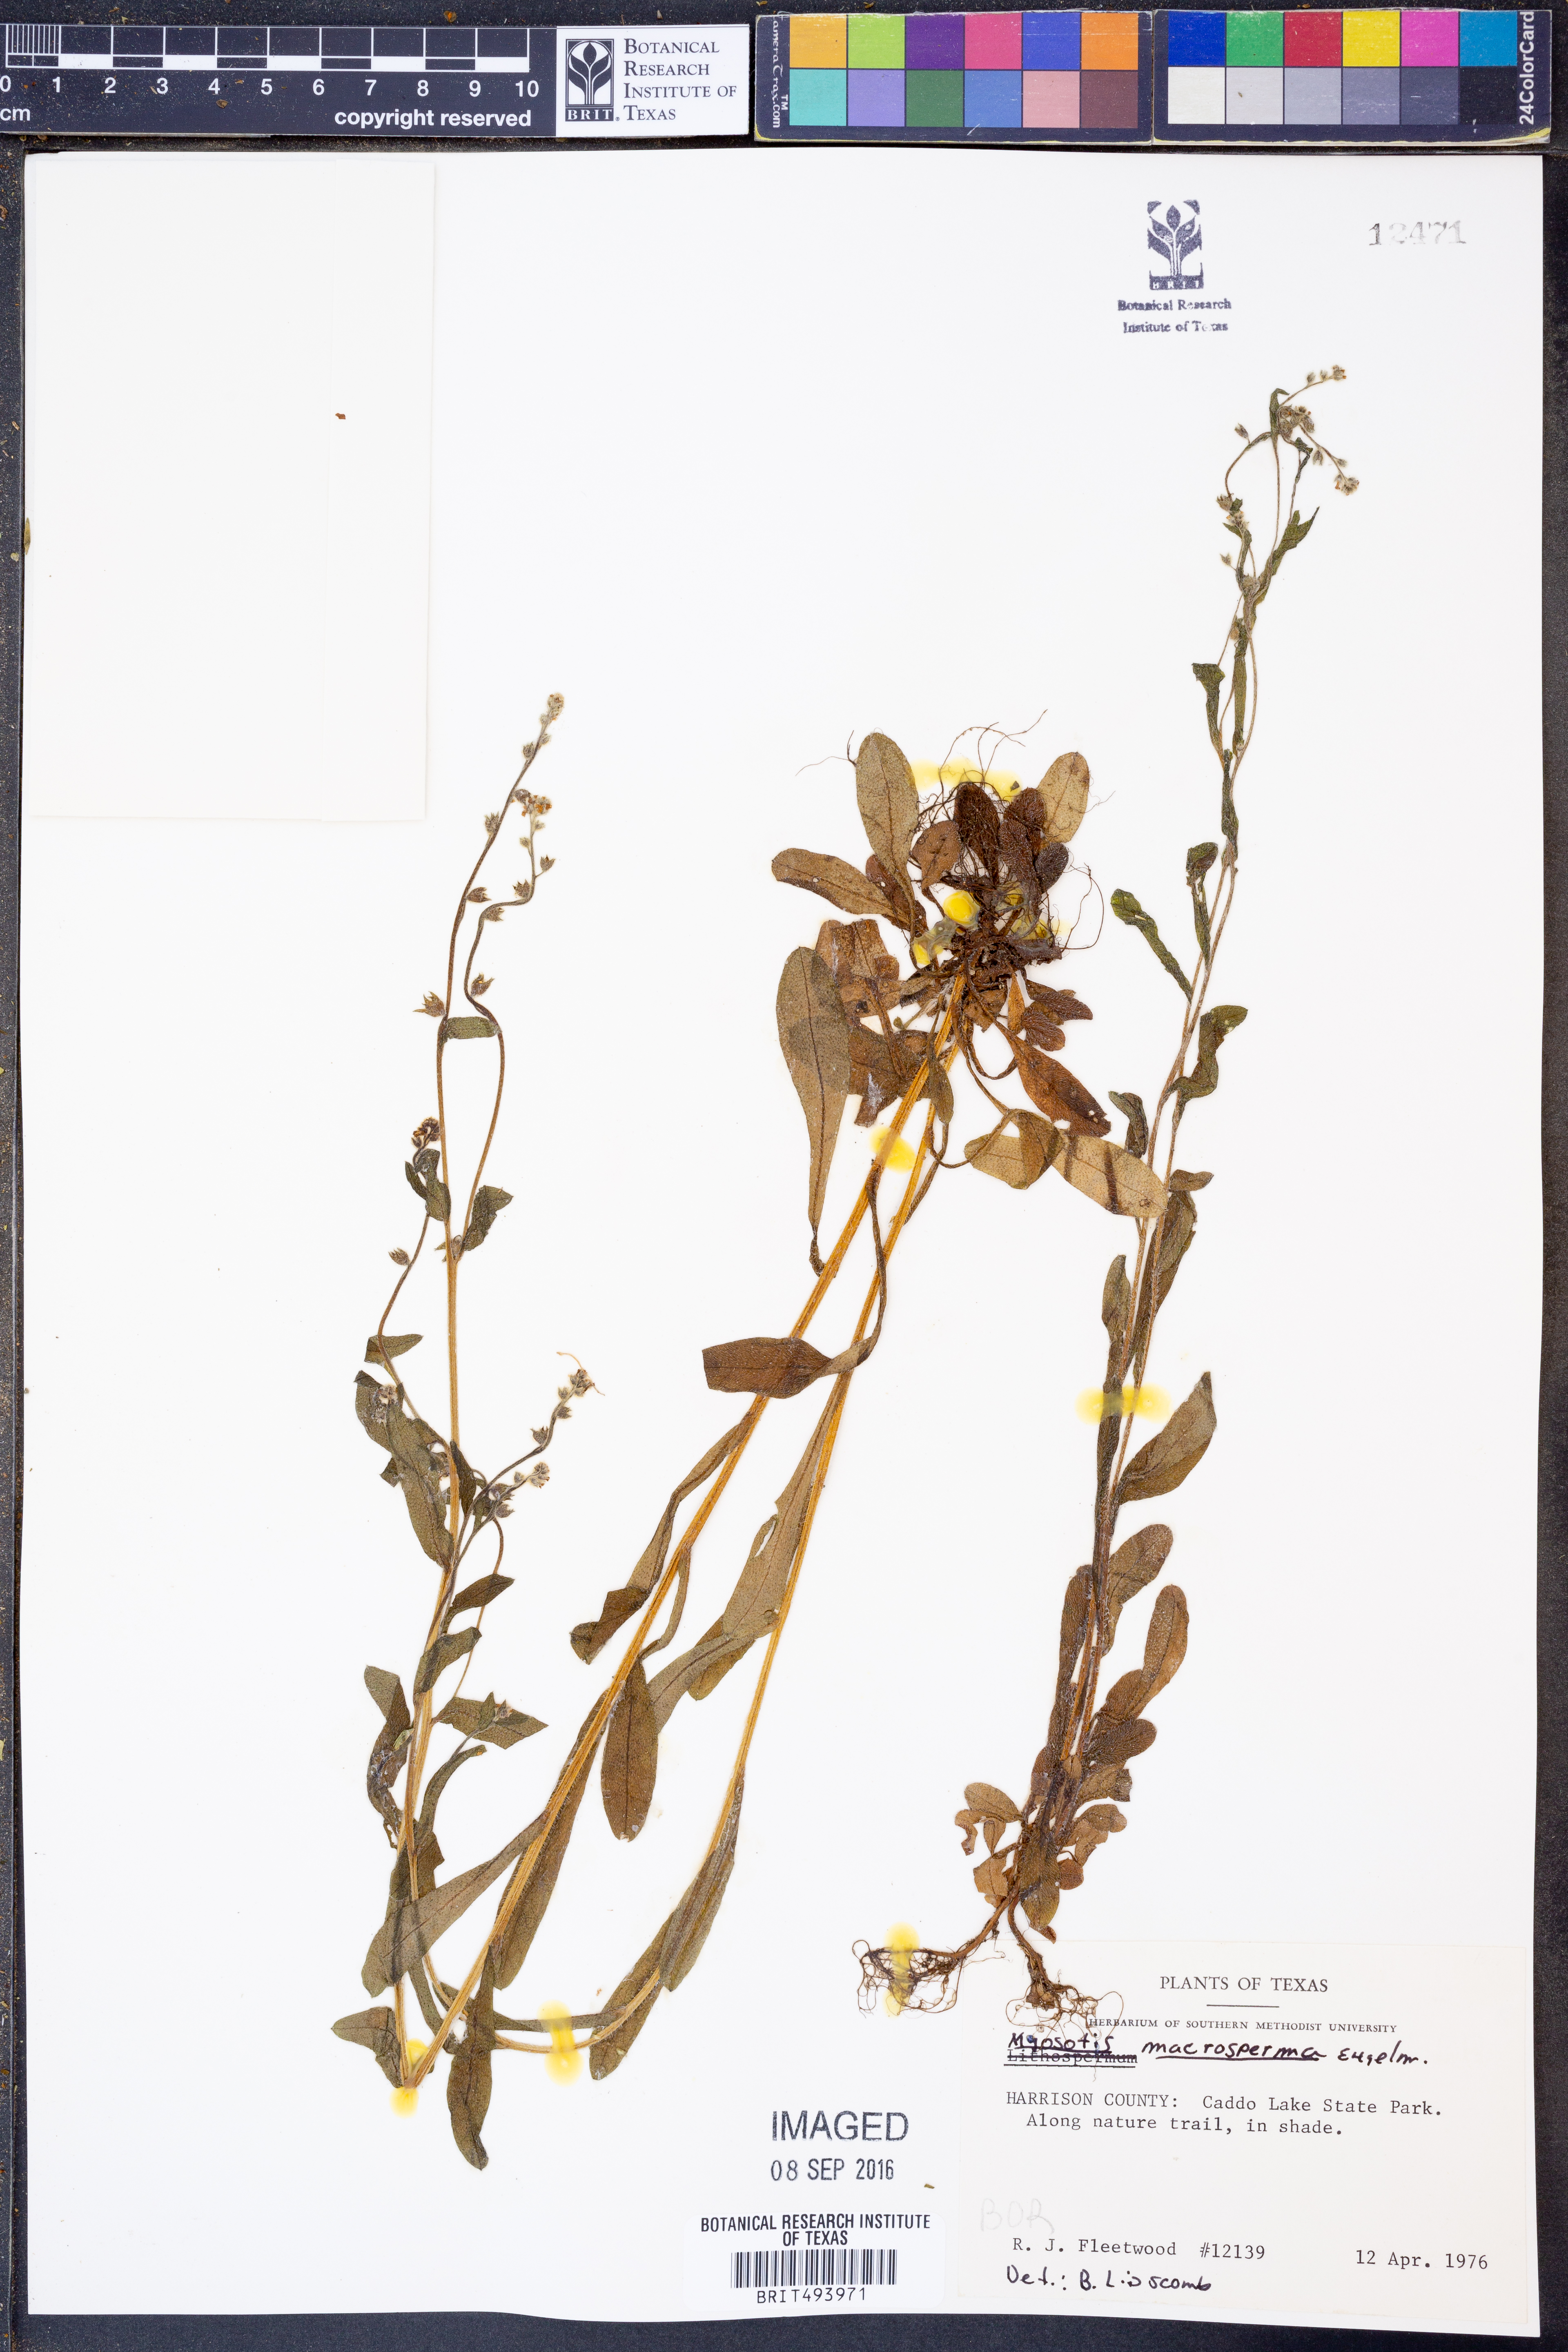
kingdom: Plantae
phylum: Tracheophyta
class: Magnoliopsida
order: Boraginales
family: Boraginaceae
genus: Myosotis
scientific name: Myosotis macrosperma
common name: Large-seed forget-me-not
